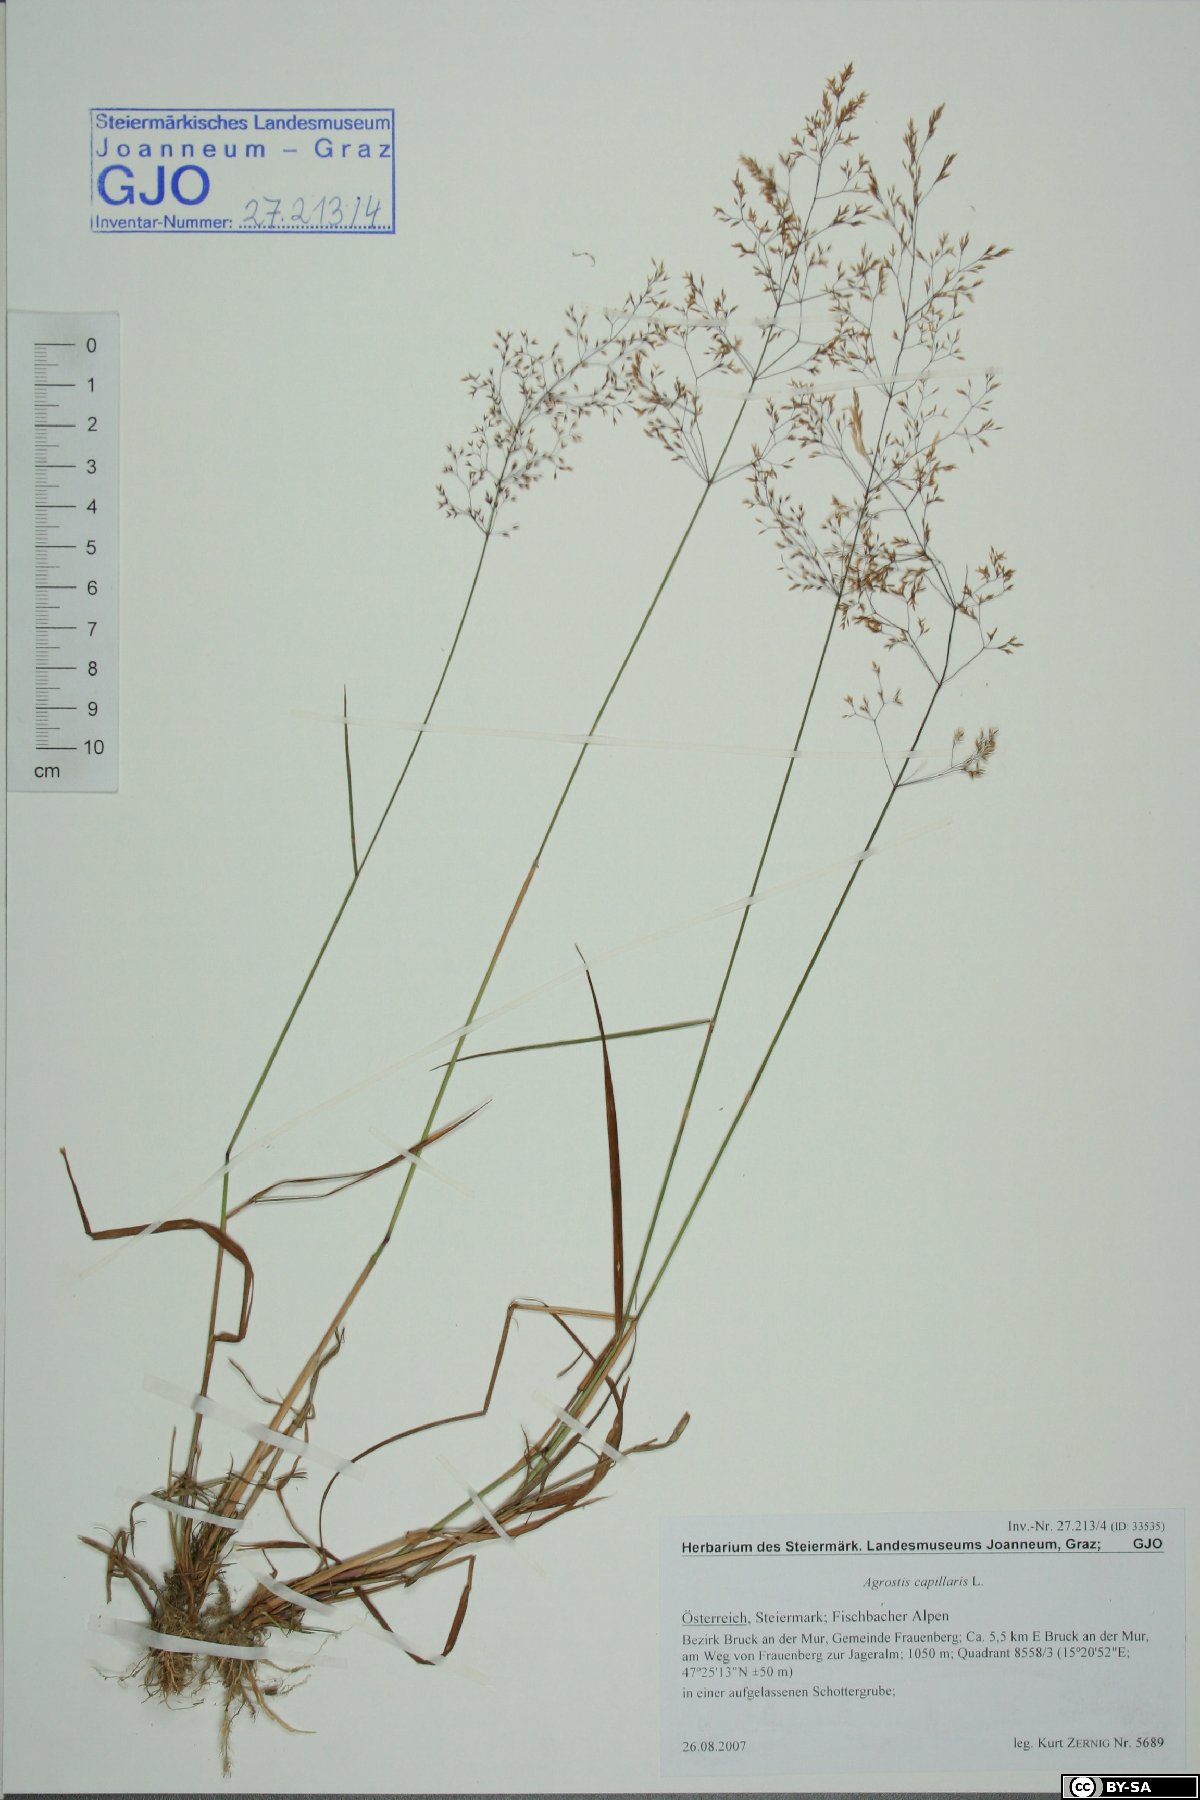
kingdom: Plantae
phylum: Tracheophyta
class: Liliopsida
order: Poales
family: Poaceae
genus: Agrostis
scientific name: Agrostis capillaris
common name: Colonial bentgrass
